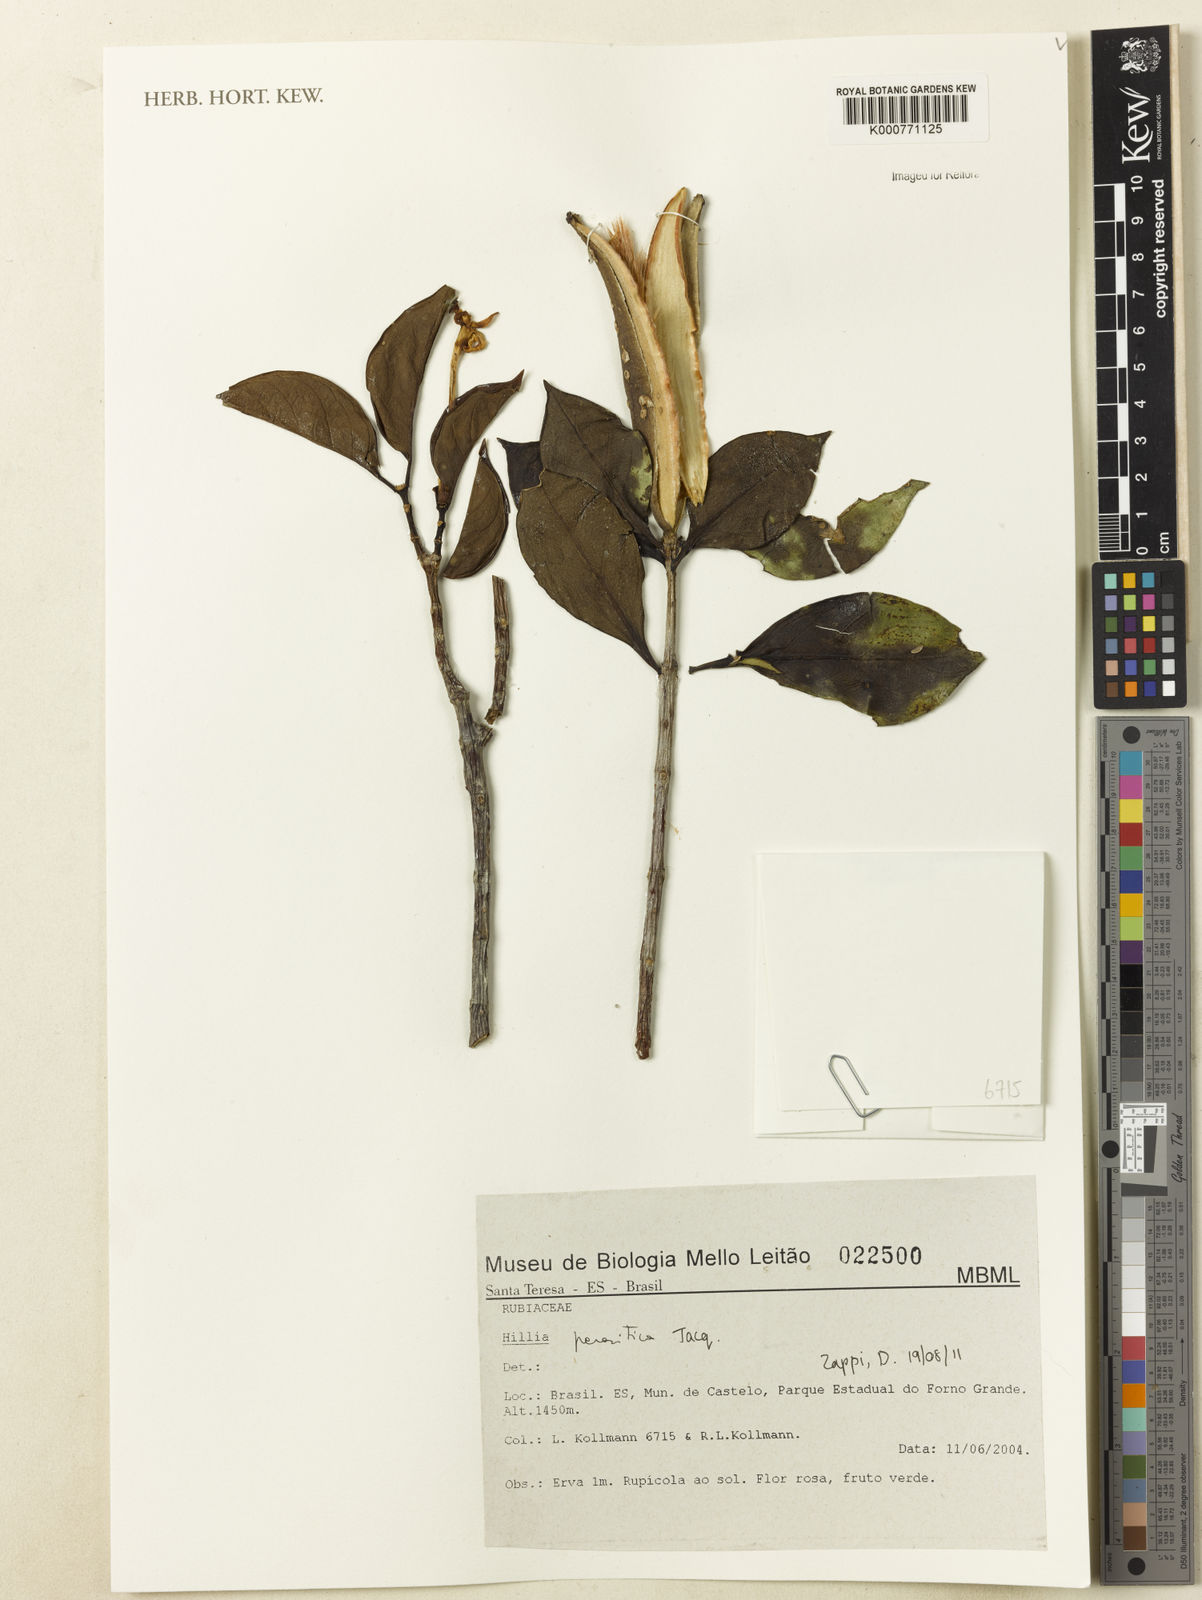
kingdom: Plantae
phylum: Tracheophyta
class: Magnoliopsida
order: Gentianales
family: Rubiaceae
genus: Hillia
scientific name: Hillia parasitica
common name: Morning star
